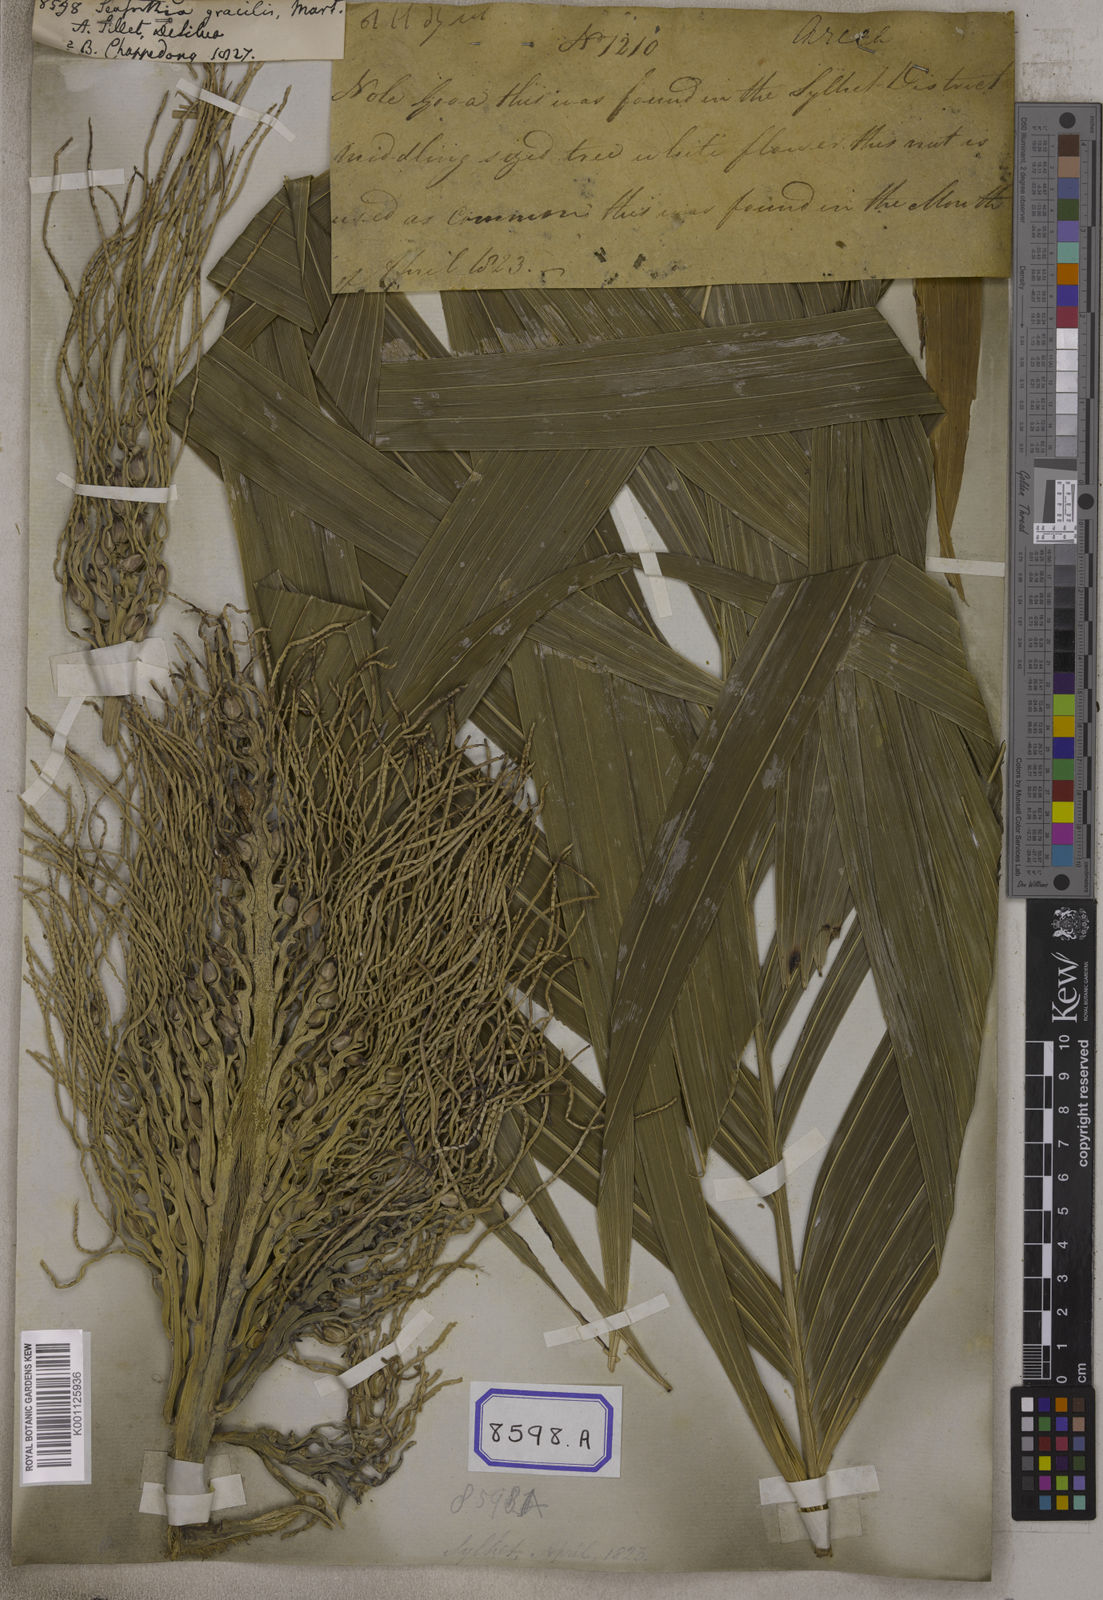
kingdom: Plantae
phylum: Tracheophyta
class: Liliopsida
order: Arecales
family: Arecaceae
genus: Pinanga
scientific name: Pinanga gracilis
